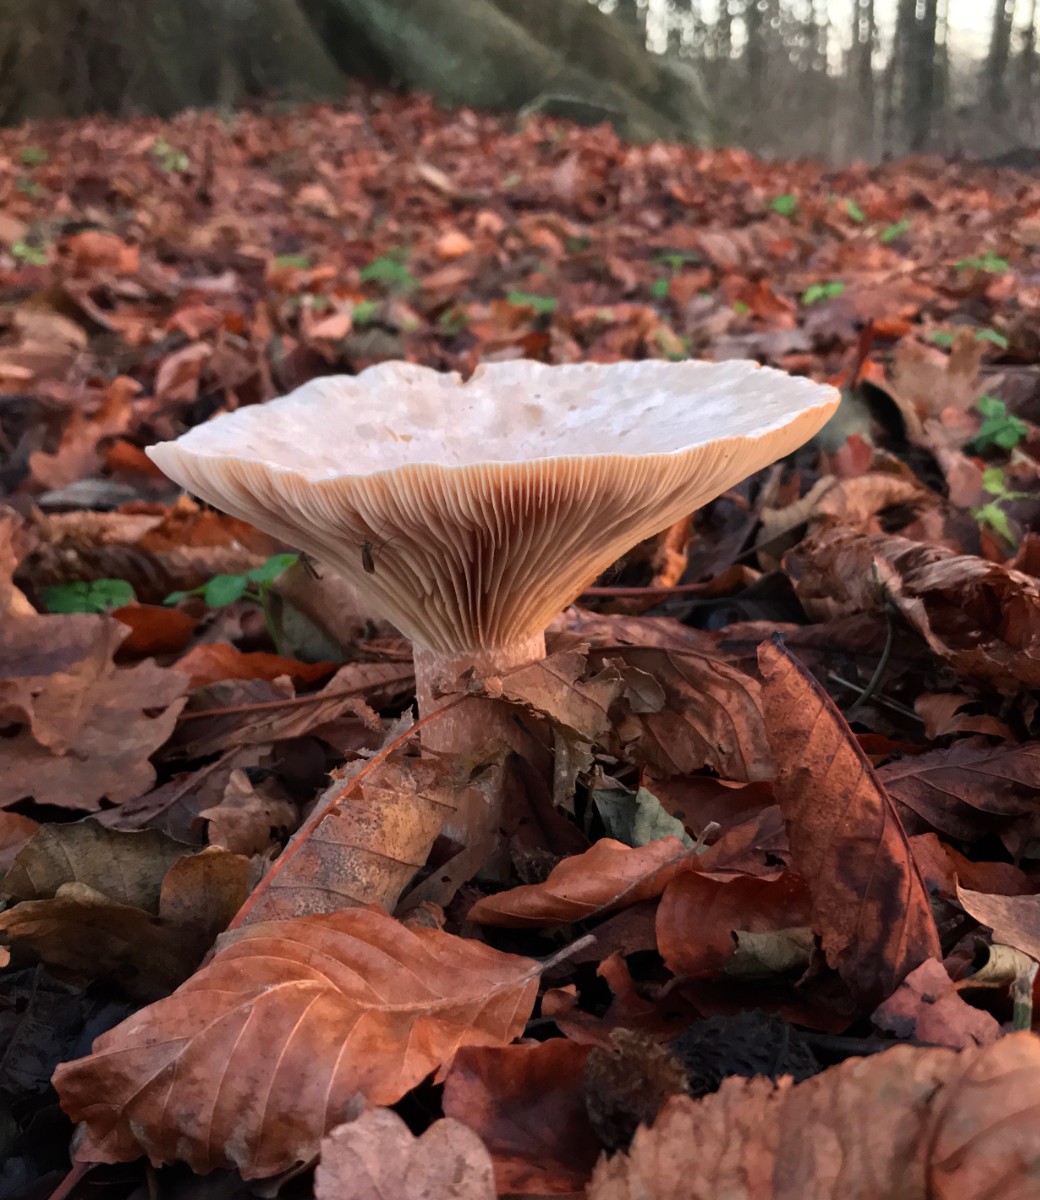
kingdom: Fungi
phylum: Basidiomycota
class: Agaricomycetes
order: Agaricales
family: Tricholomataceae
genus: Infundibulicybe
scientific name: Infundibulicybe geotropa
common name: stor tragthat
